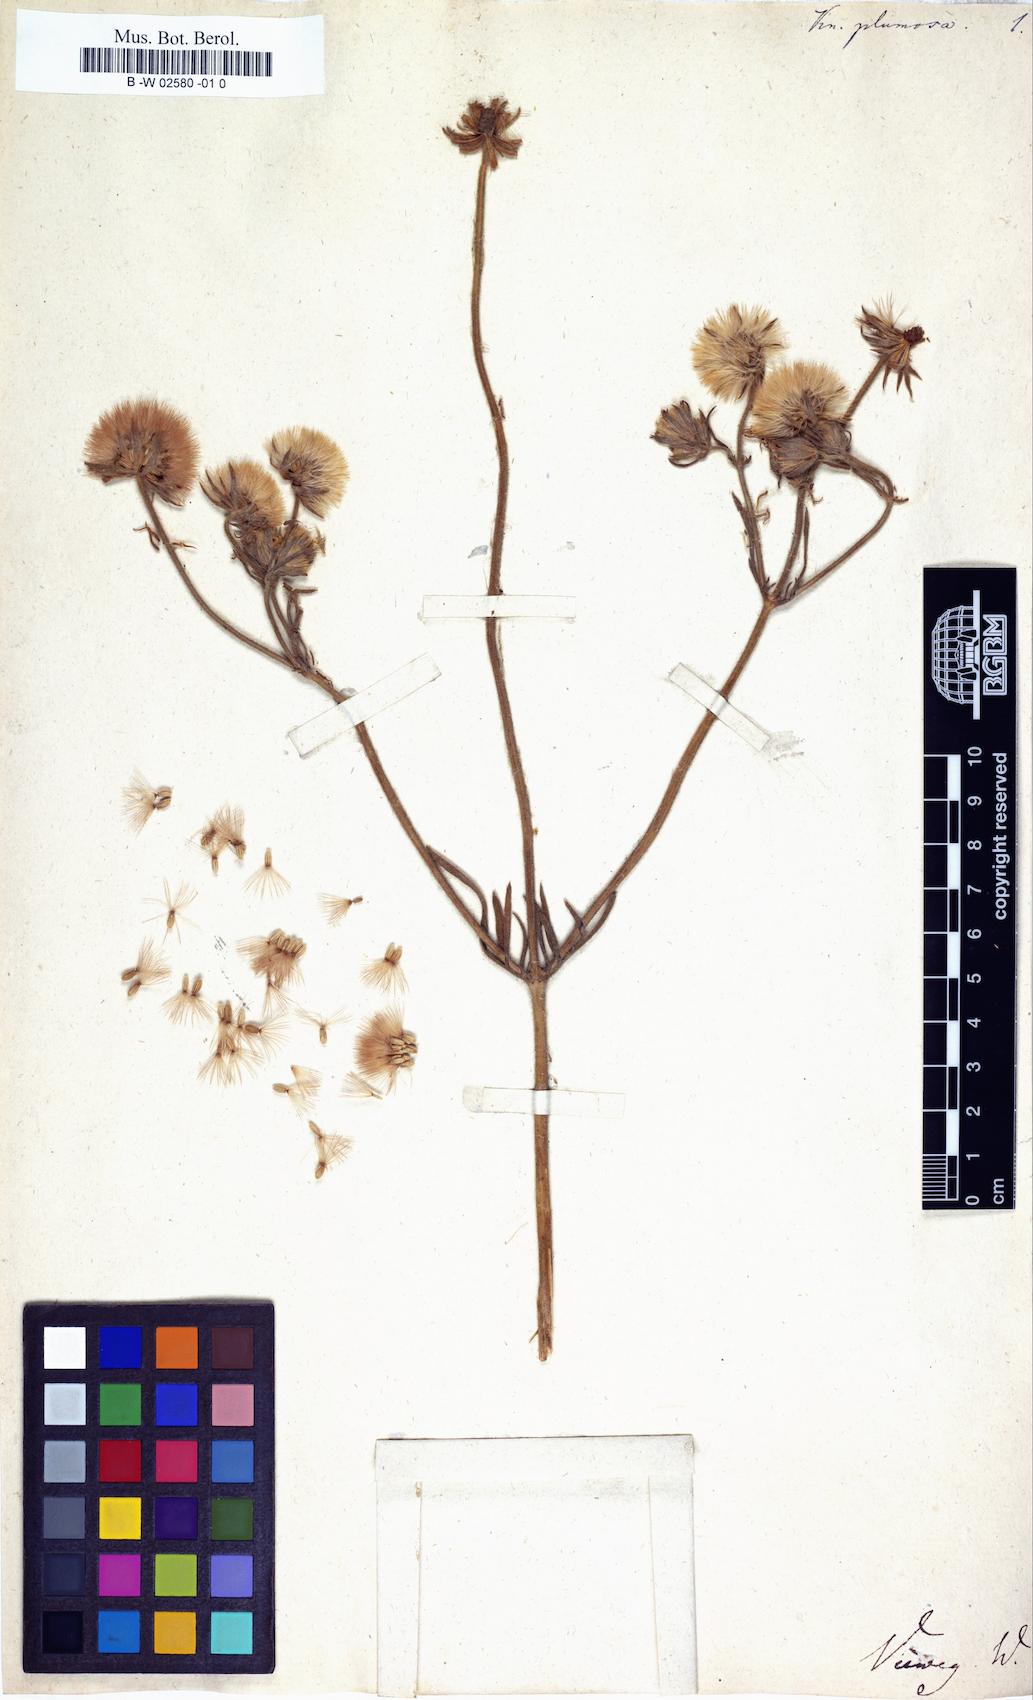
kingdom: Plantae
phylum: Tracheophyta
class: Magnoliopsida
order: Dipsacales
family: Caprifoliaceae
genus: Pterocephalus
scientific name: Pterocephalus plumosus
